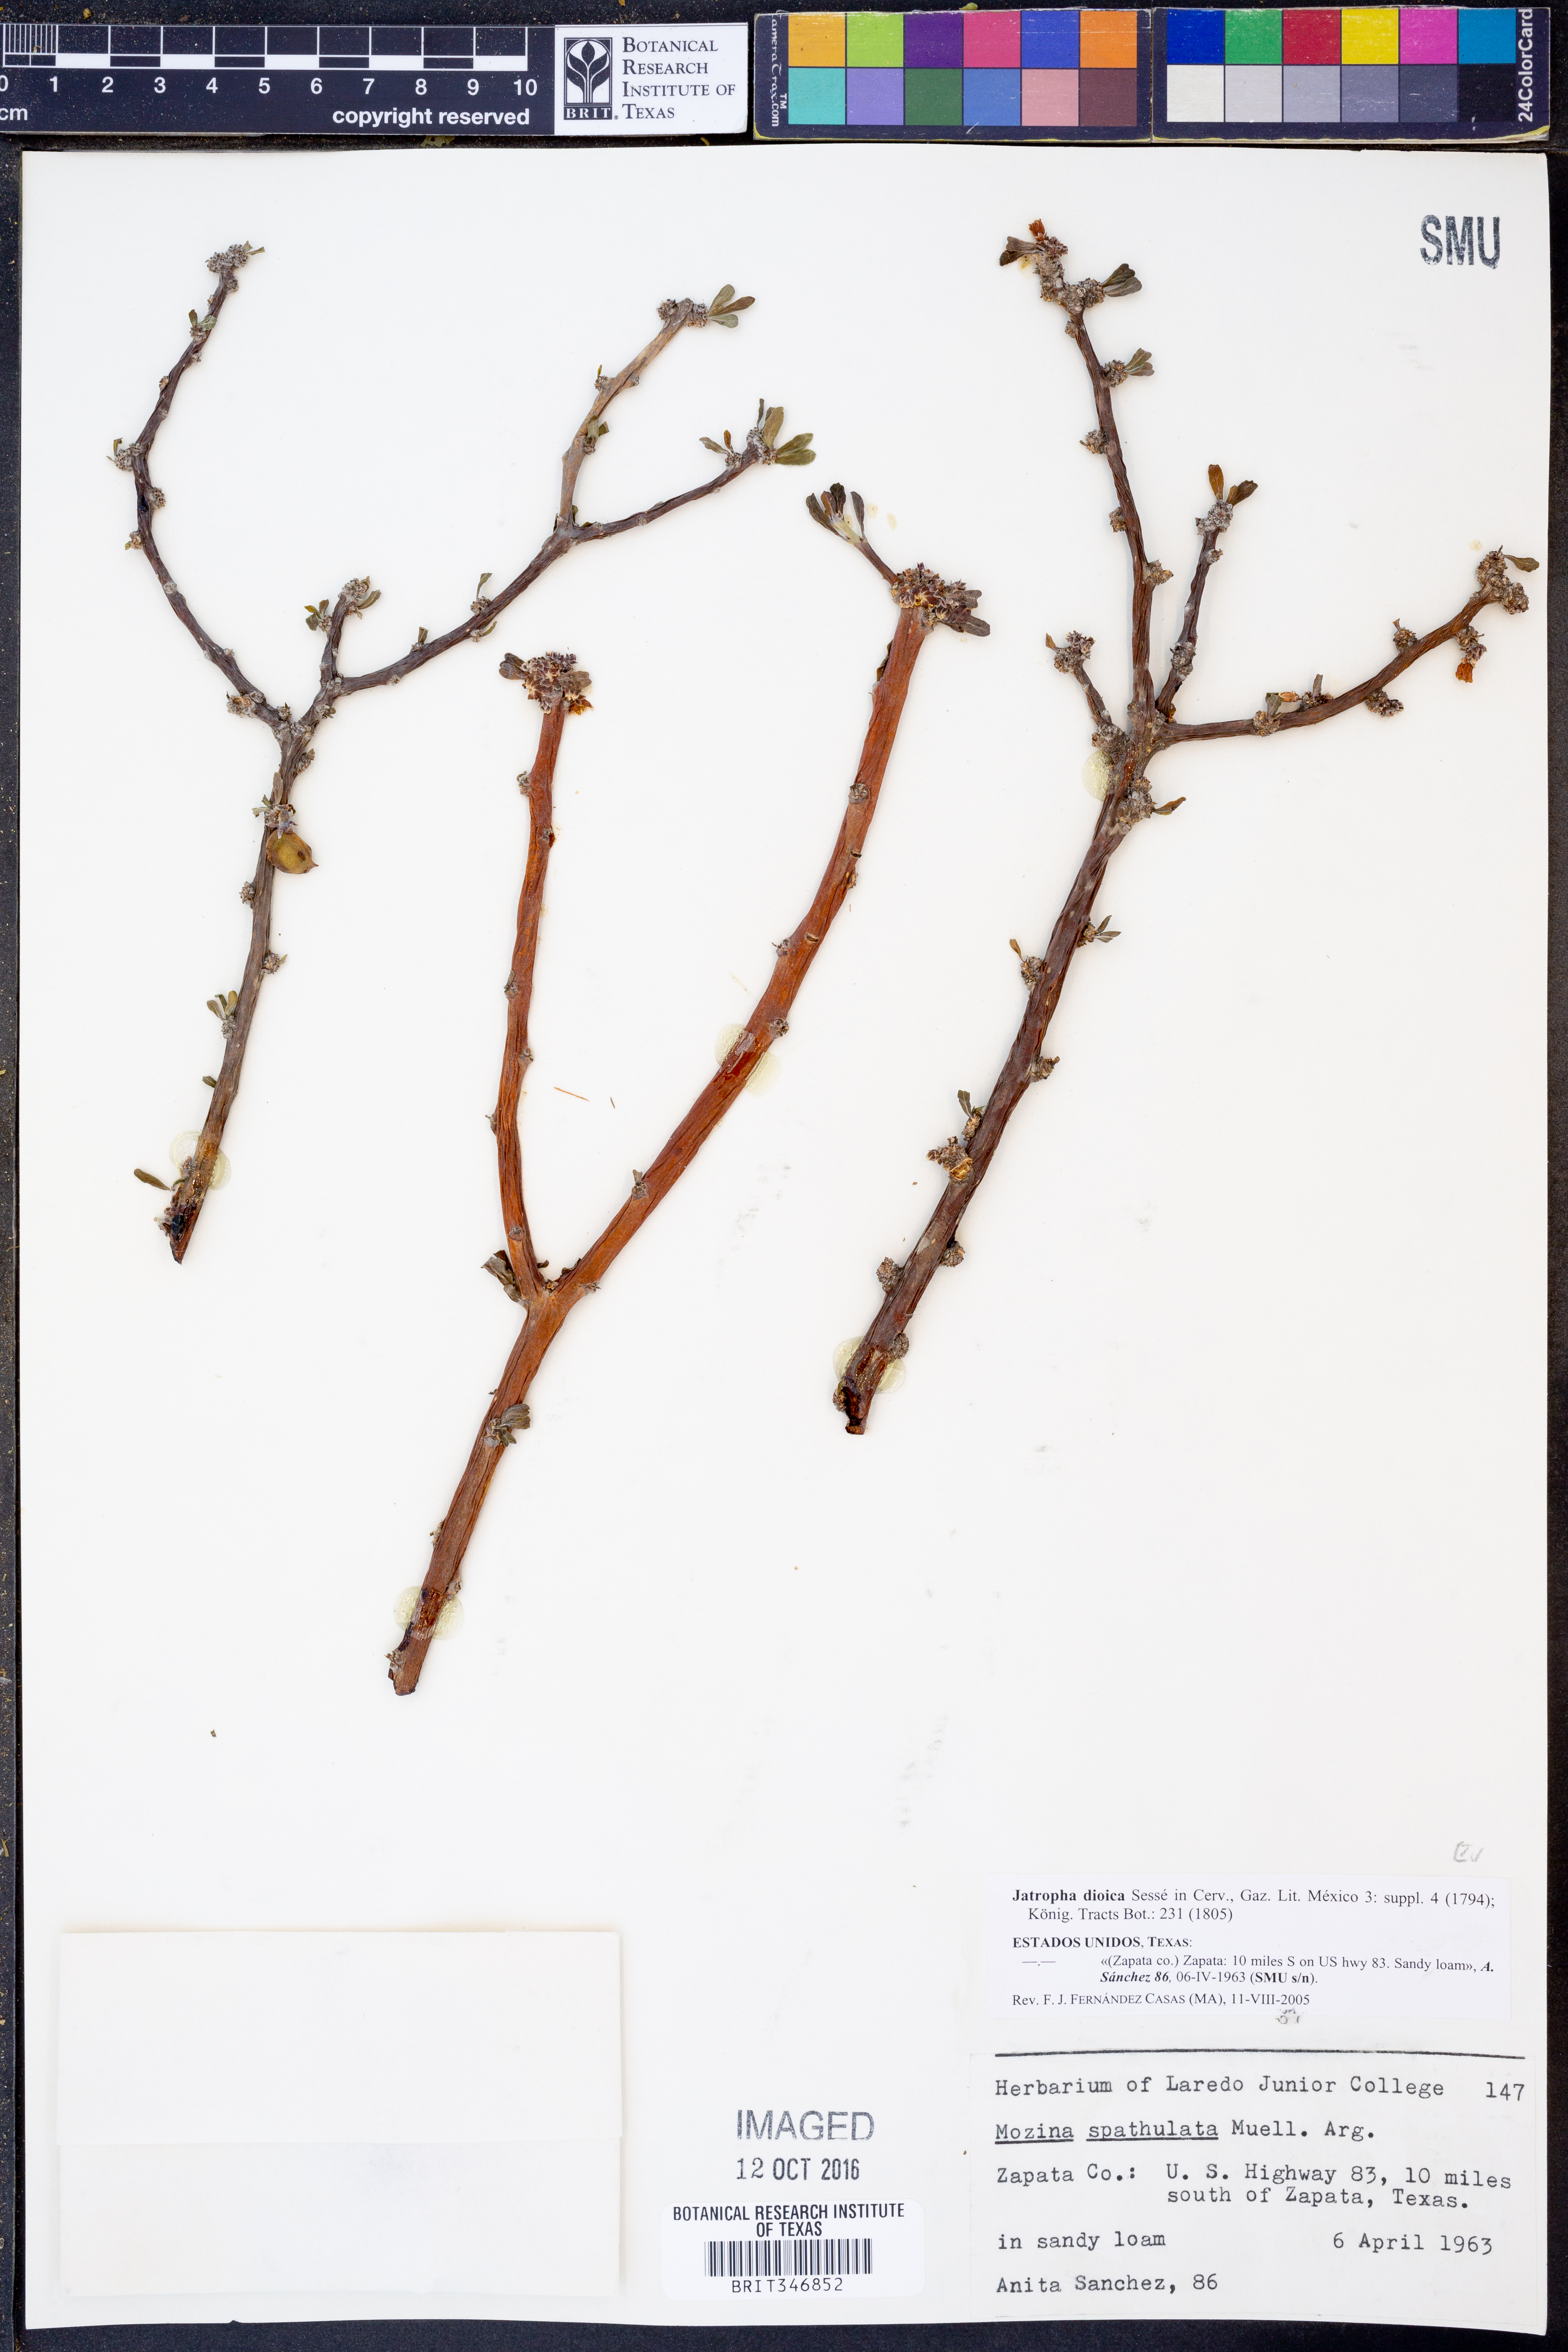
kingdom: Plantae
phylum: Tracheophyta
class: Magnoliopsida
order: Malpighiales
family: Euphorbiaceae
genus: Jatropha
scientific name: Jatropha dioica
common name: Leatherstem
